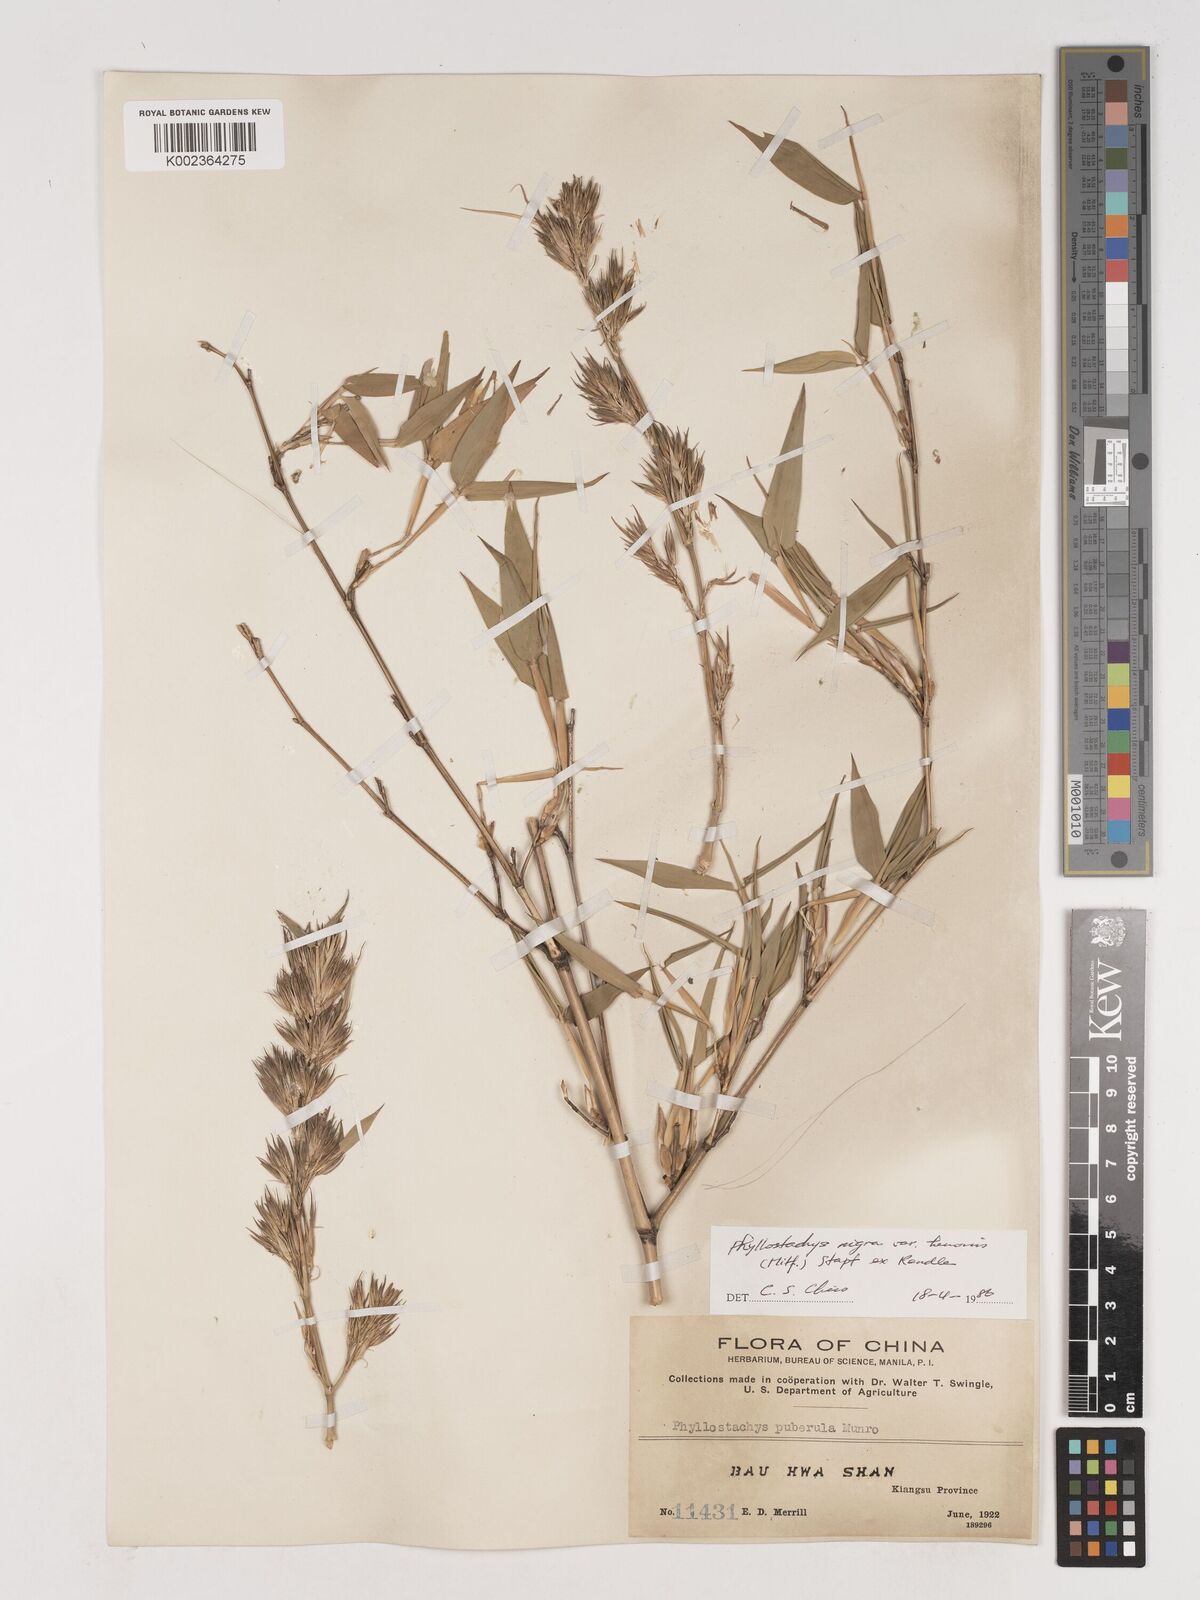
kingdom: Plantae
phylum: Tracheophyta
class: Liliopsida
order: Poales
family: Poaceae
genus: Phyllostachys
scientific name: Phyllostachys nigra
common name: Black bamboo
